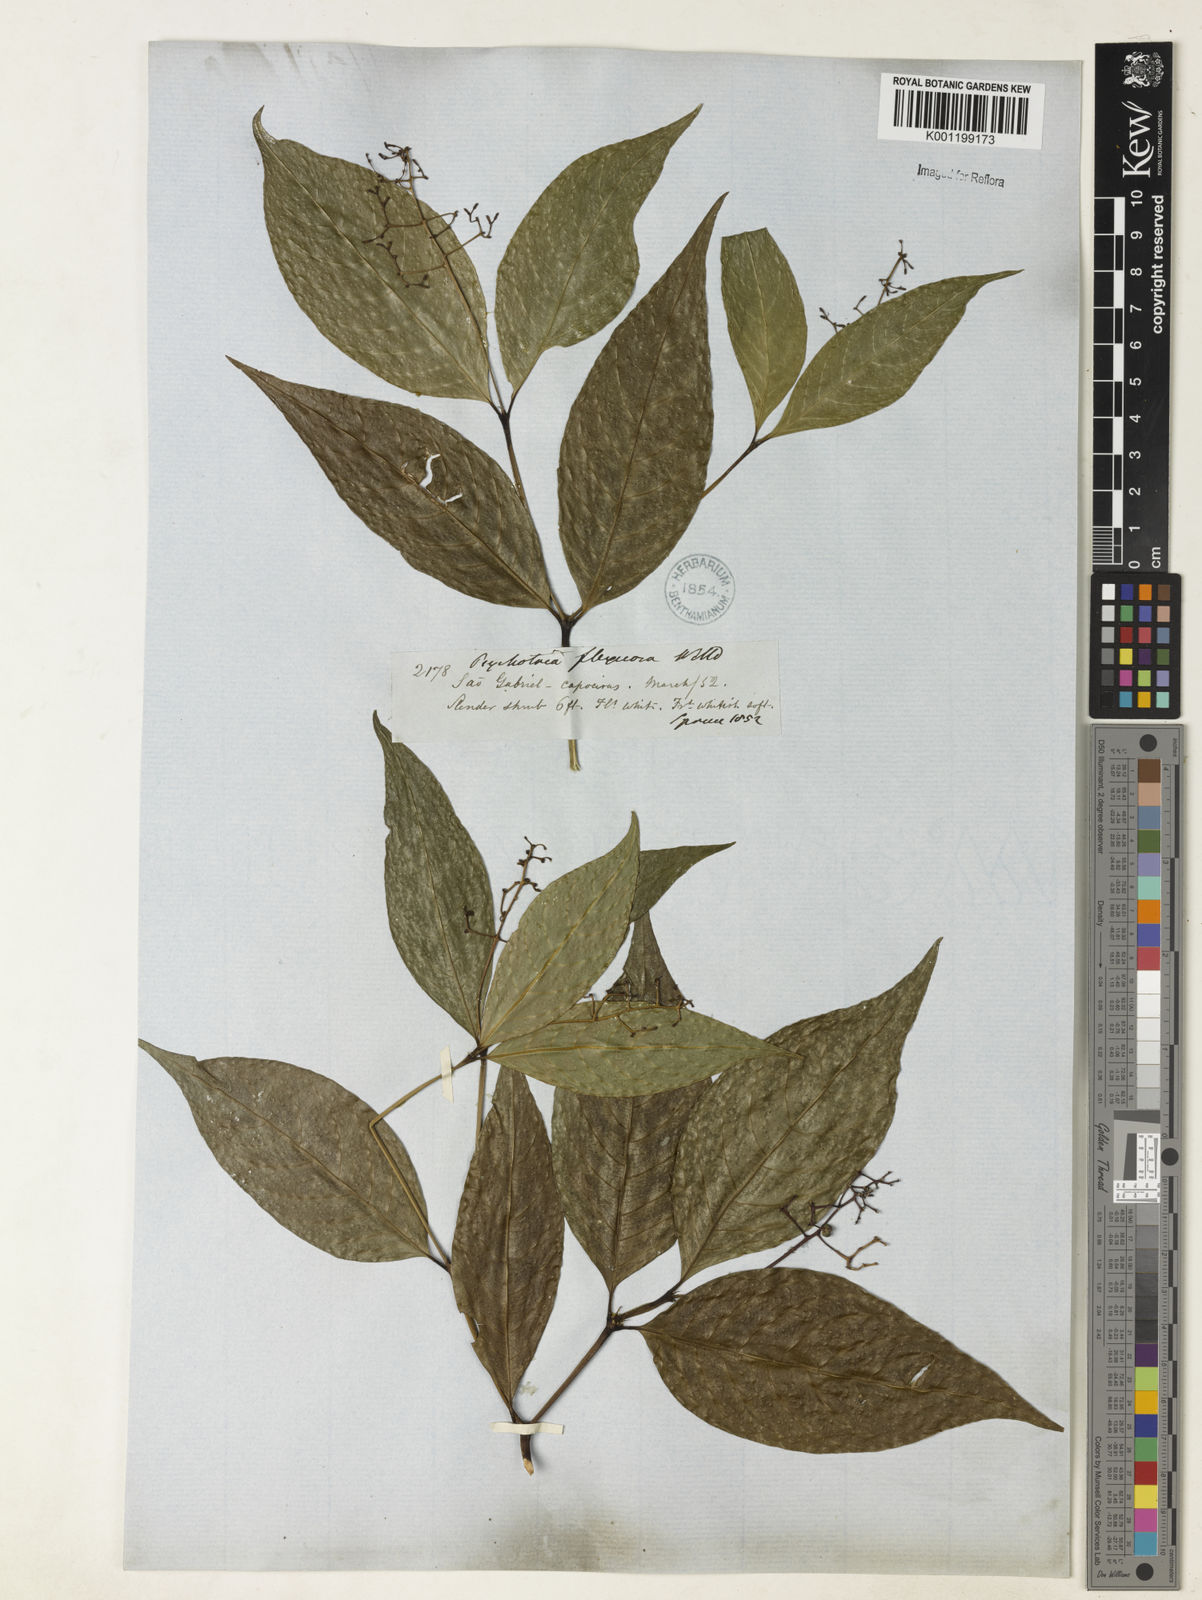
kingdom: Plantae
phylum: Tracheophyta
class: Magnoliopsida
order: Gentianales
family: Rubiaceae
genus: Palicourea
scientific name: Palicourea deflexa
